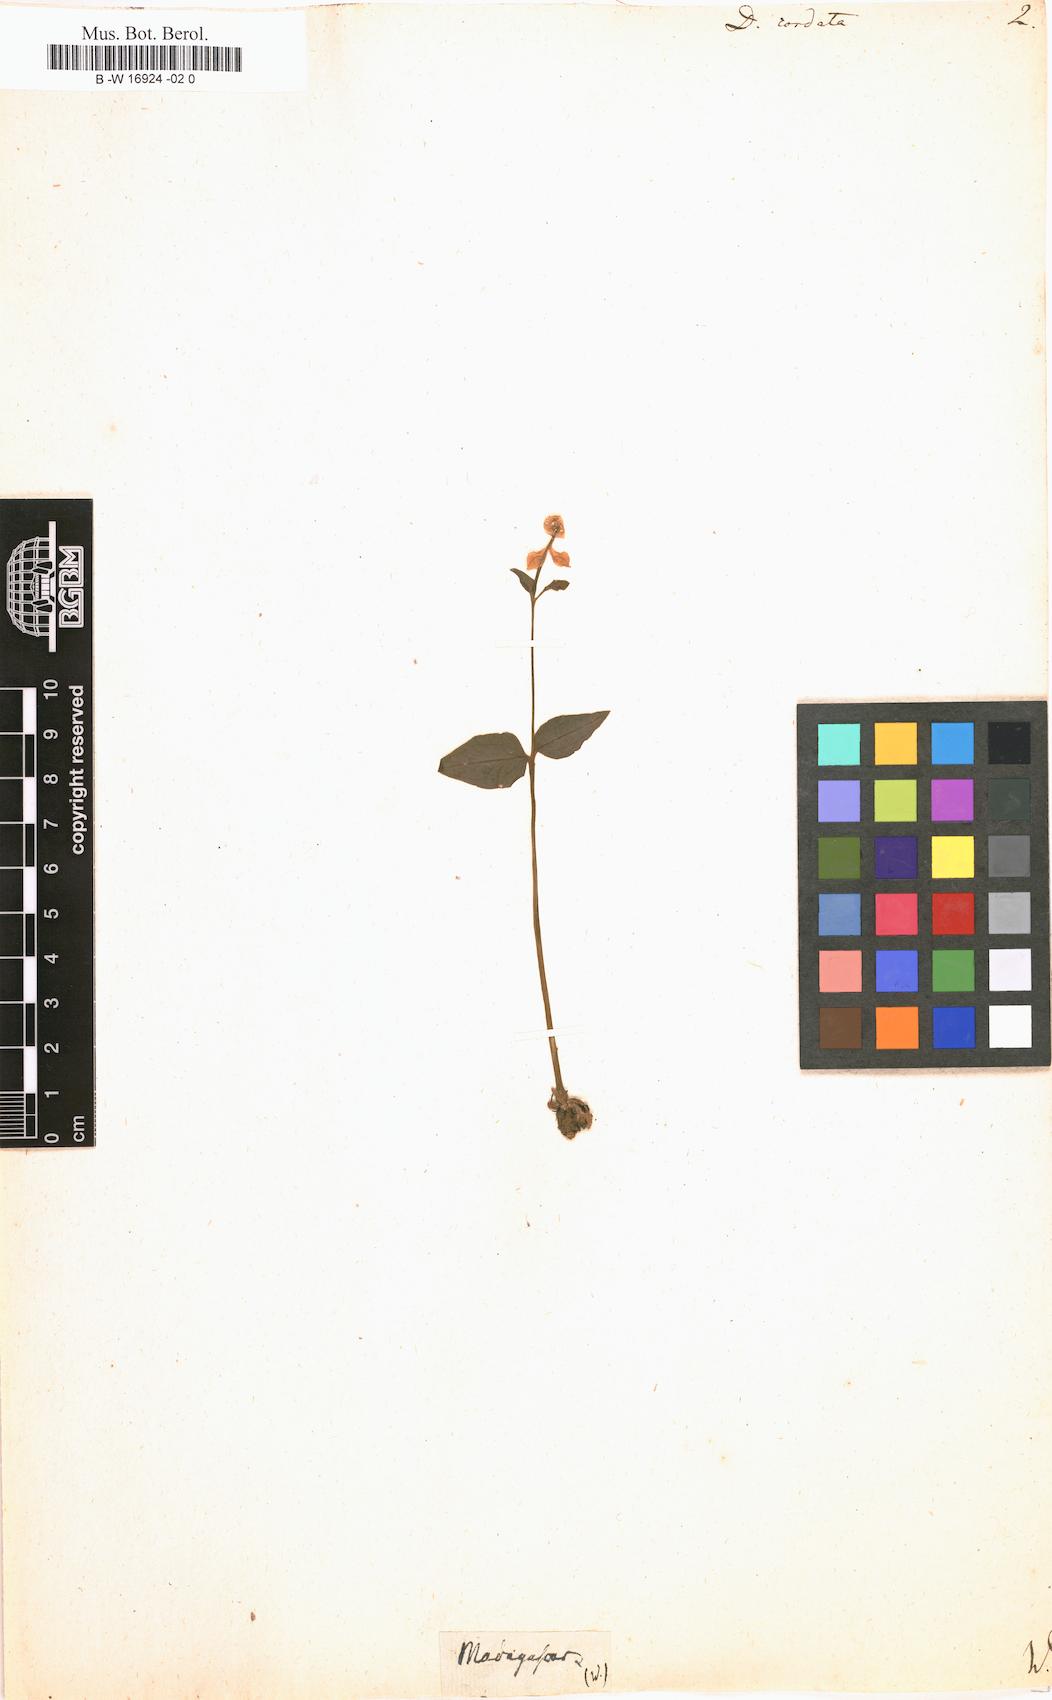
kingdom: Plantae
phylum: Tracheophyta
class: Liliopsida
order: Asparagales
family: Orchidaceae
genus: Disperis
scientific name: Disperis cordata
